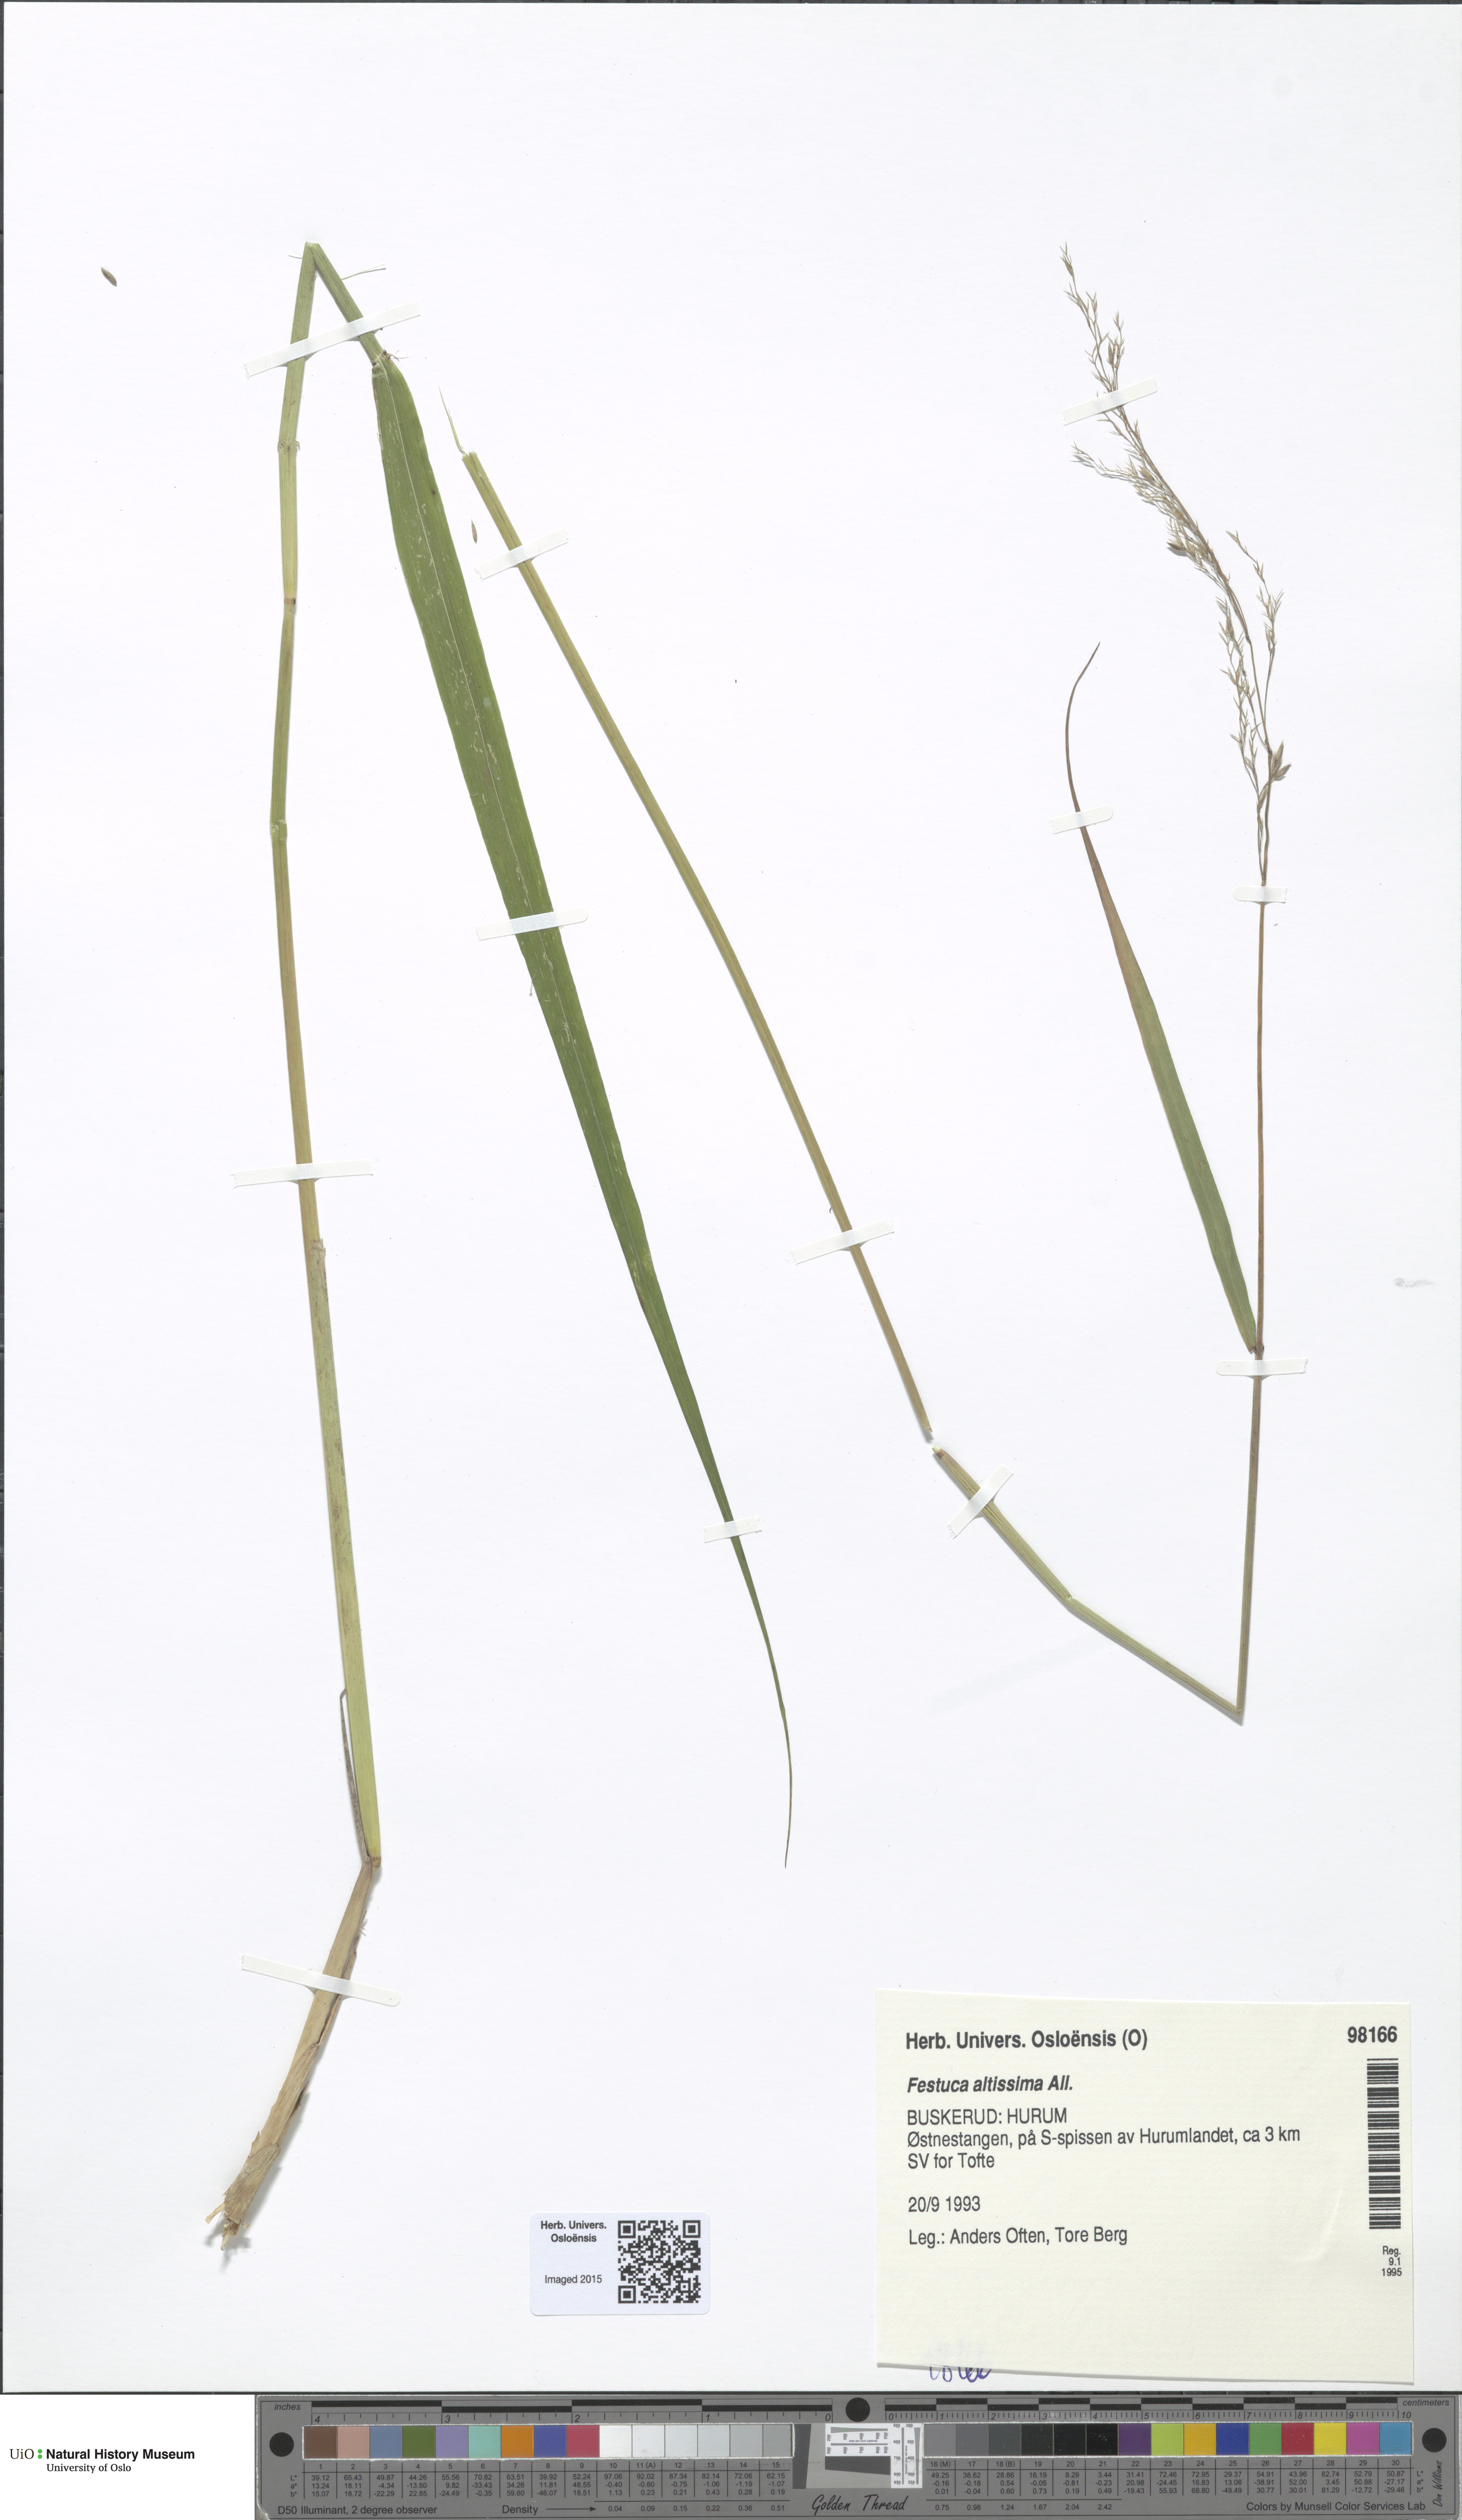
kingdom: Plantae
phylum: Tracheophyta
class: Liliopsida
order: Poales
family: Poaceae
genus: Festuca
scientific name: Festuca altissima
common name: Wood fescue
